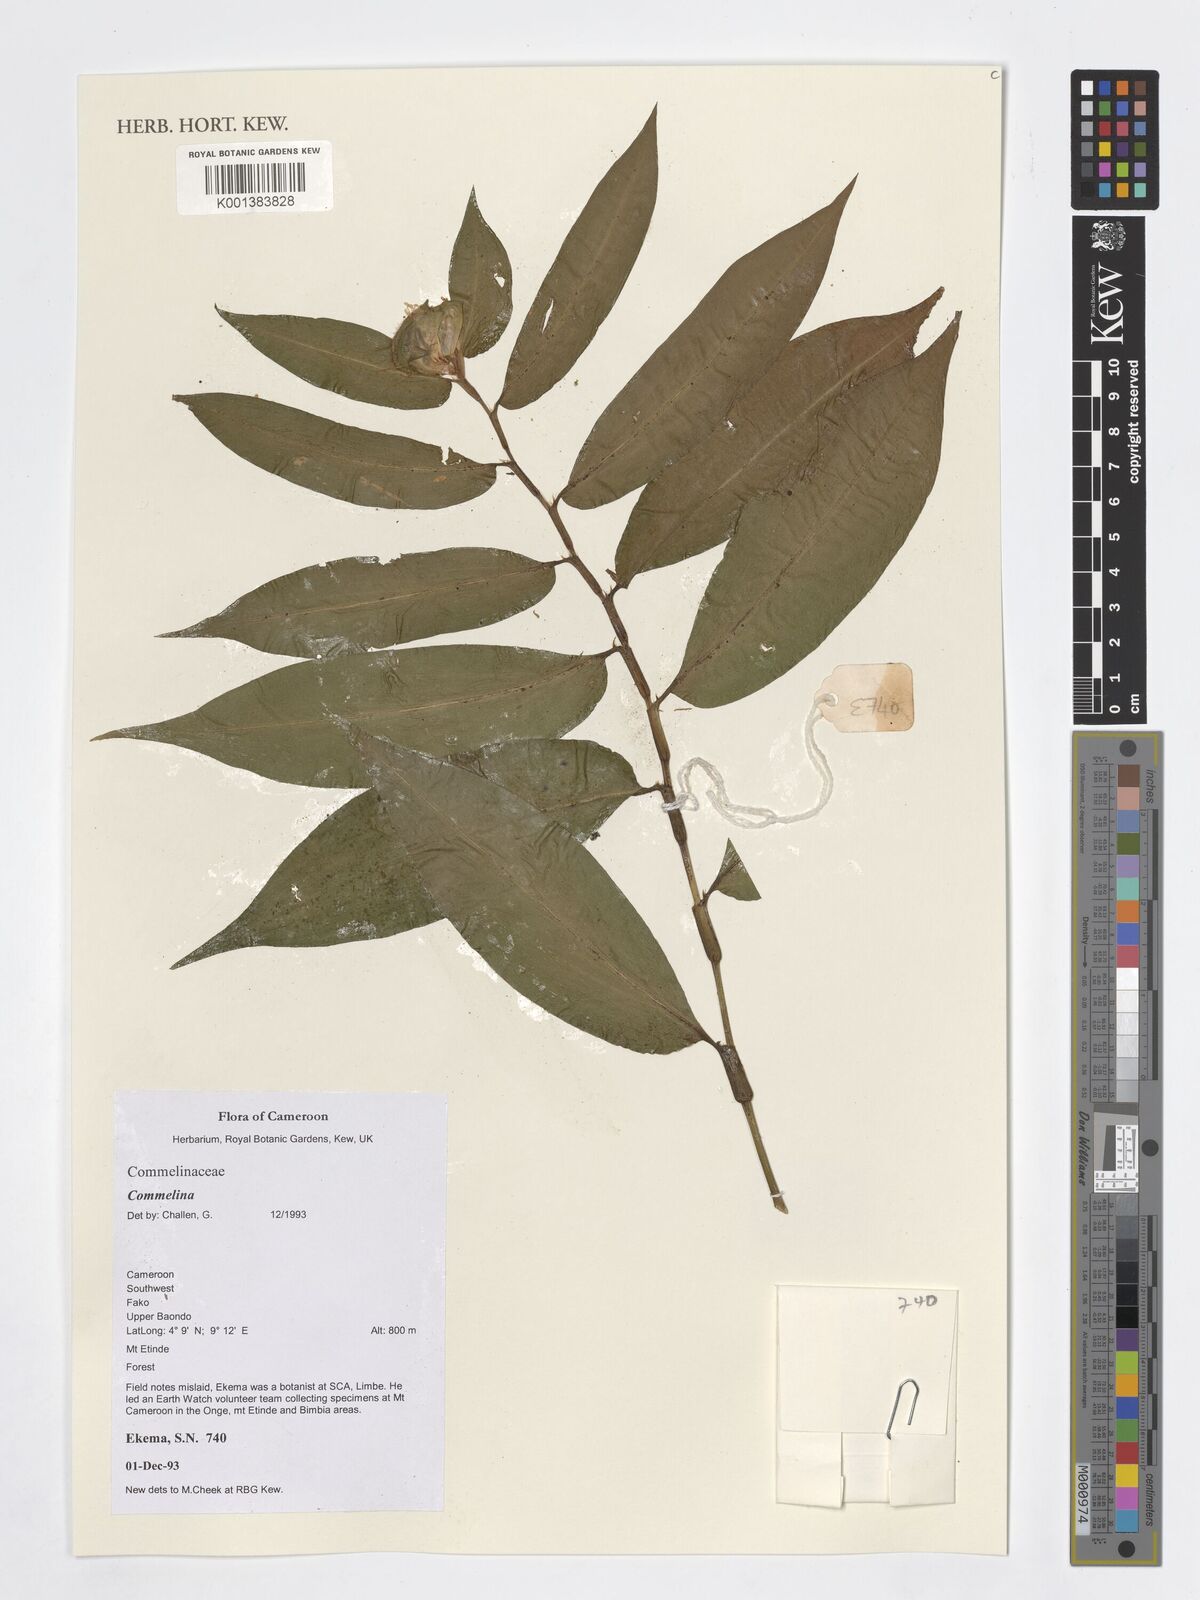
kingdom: Plantae
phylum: Tracheophyta
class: Liliopsida
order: Commelinales
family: Commelinaceae
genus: Commelina
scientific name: Commelina
